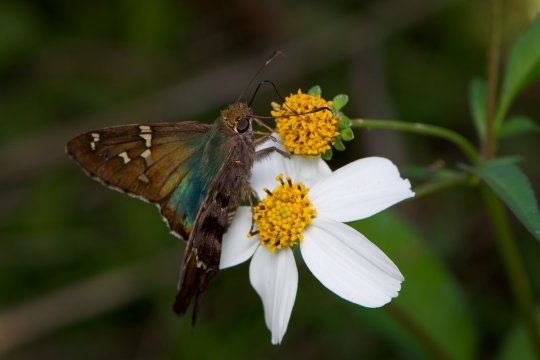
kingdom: Animalia
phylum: Arthropoda
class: Insecta
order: Lepidoptera
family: Hesperiidae
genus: Urbanus
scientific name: Urbanus proteus
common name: Long-tailed Skipper
